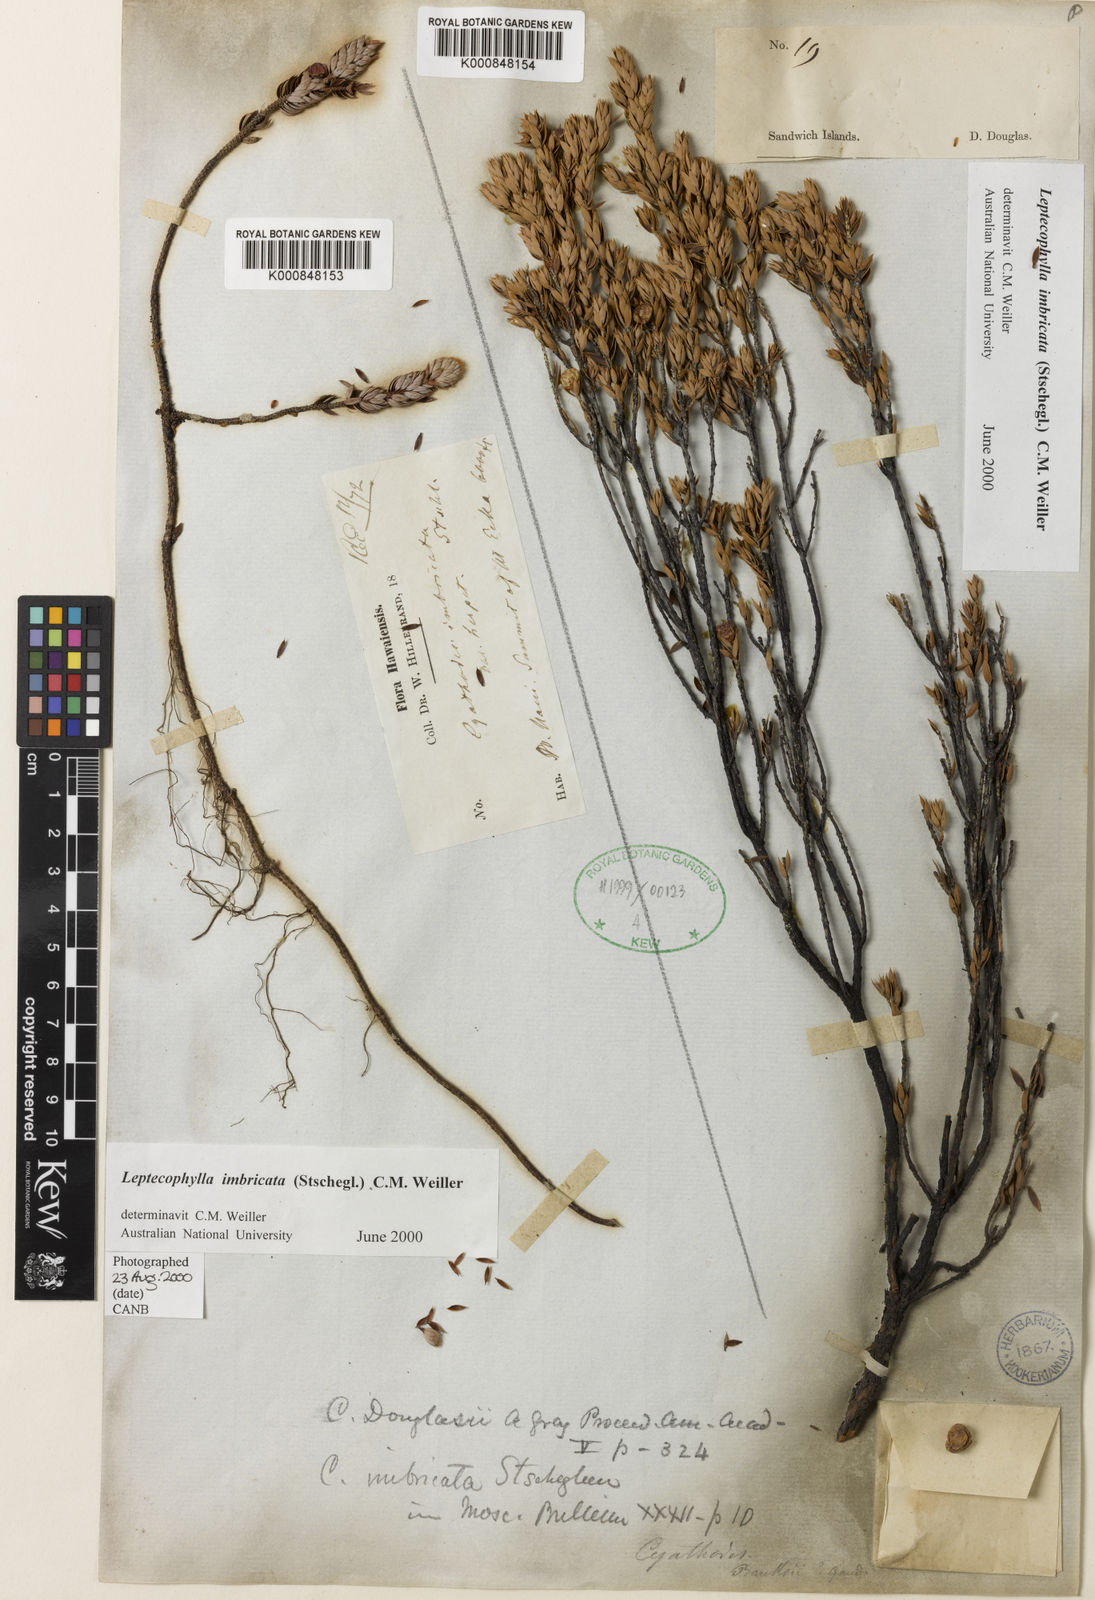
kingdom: Plantae
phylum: Tracheophyta
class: Magnoliopsida
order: Ericales
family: Ericaceae
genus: Leptecophylla
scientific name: Leptecophylla tameiameiae
